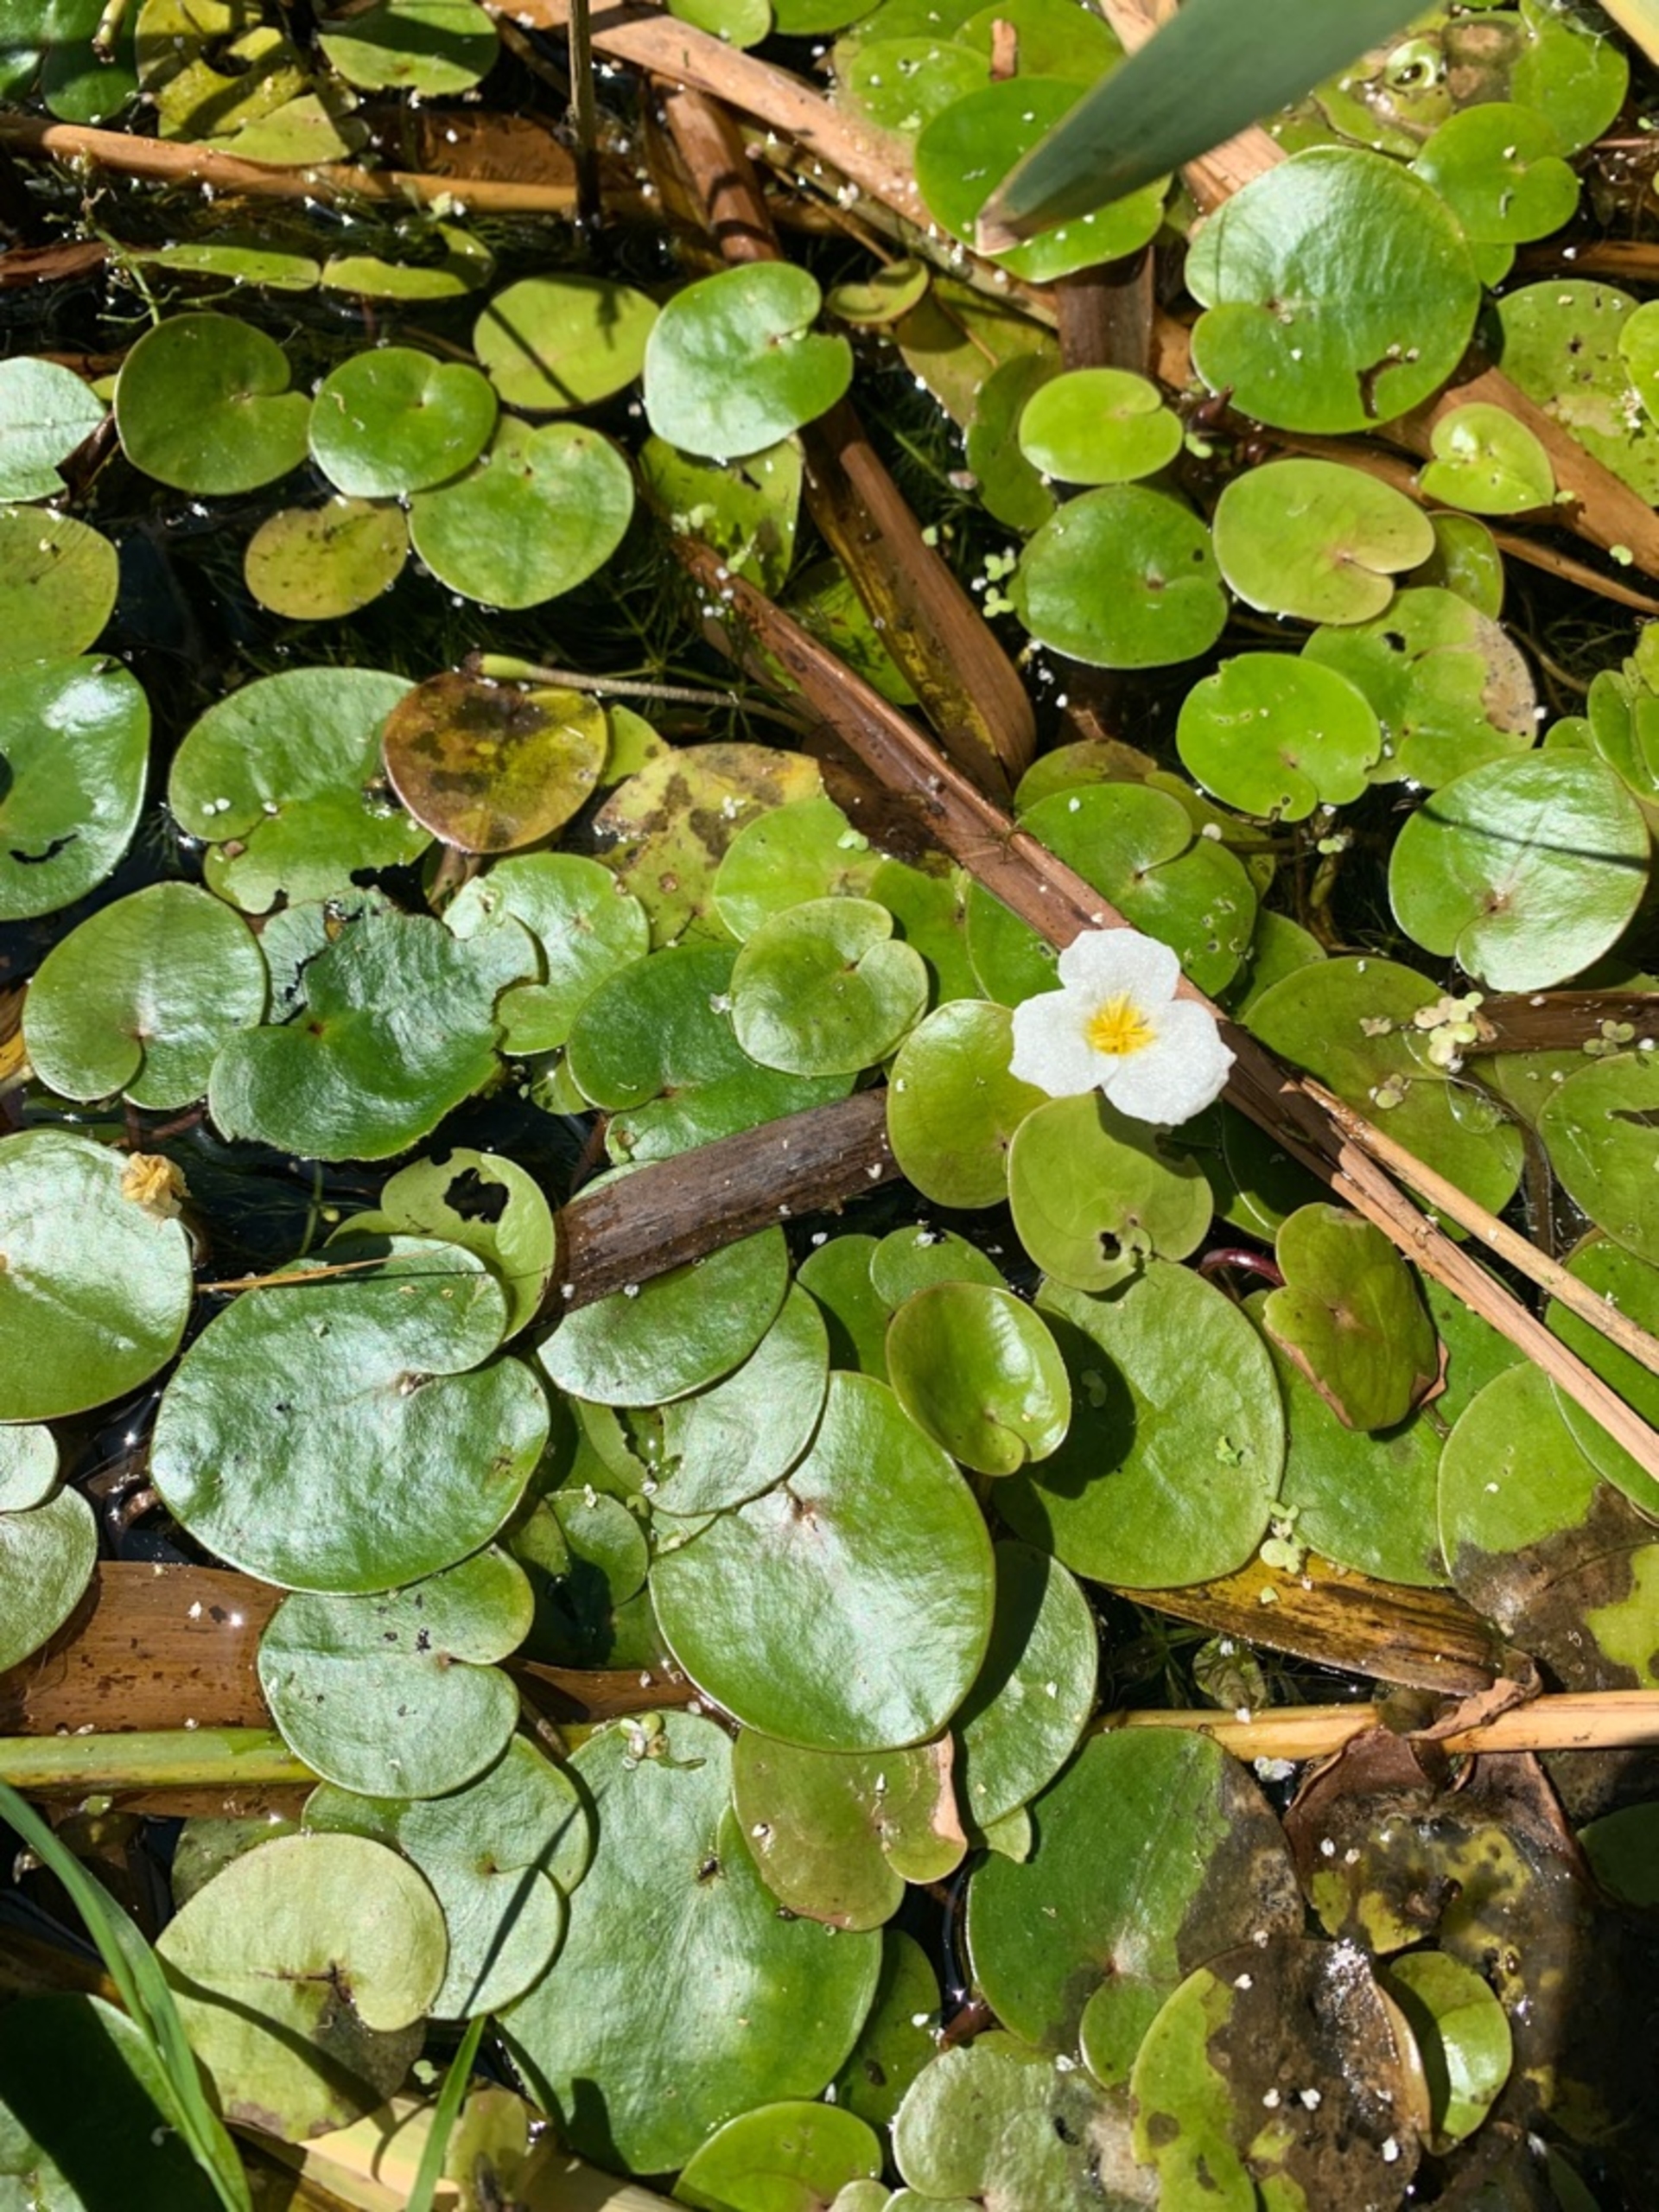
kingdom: Plantae
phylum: Tracheophyta
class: Liliopsida
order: Alismatales
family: Hydrocharitaceae
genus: Hydrocharis
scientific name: Hydrocharis morsus-ranae
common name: Frøbid
